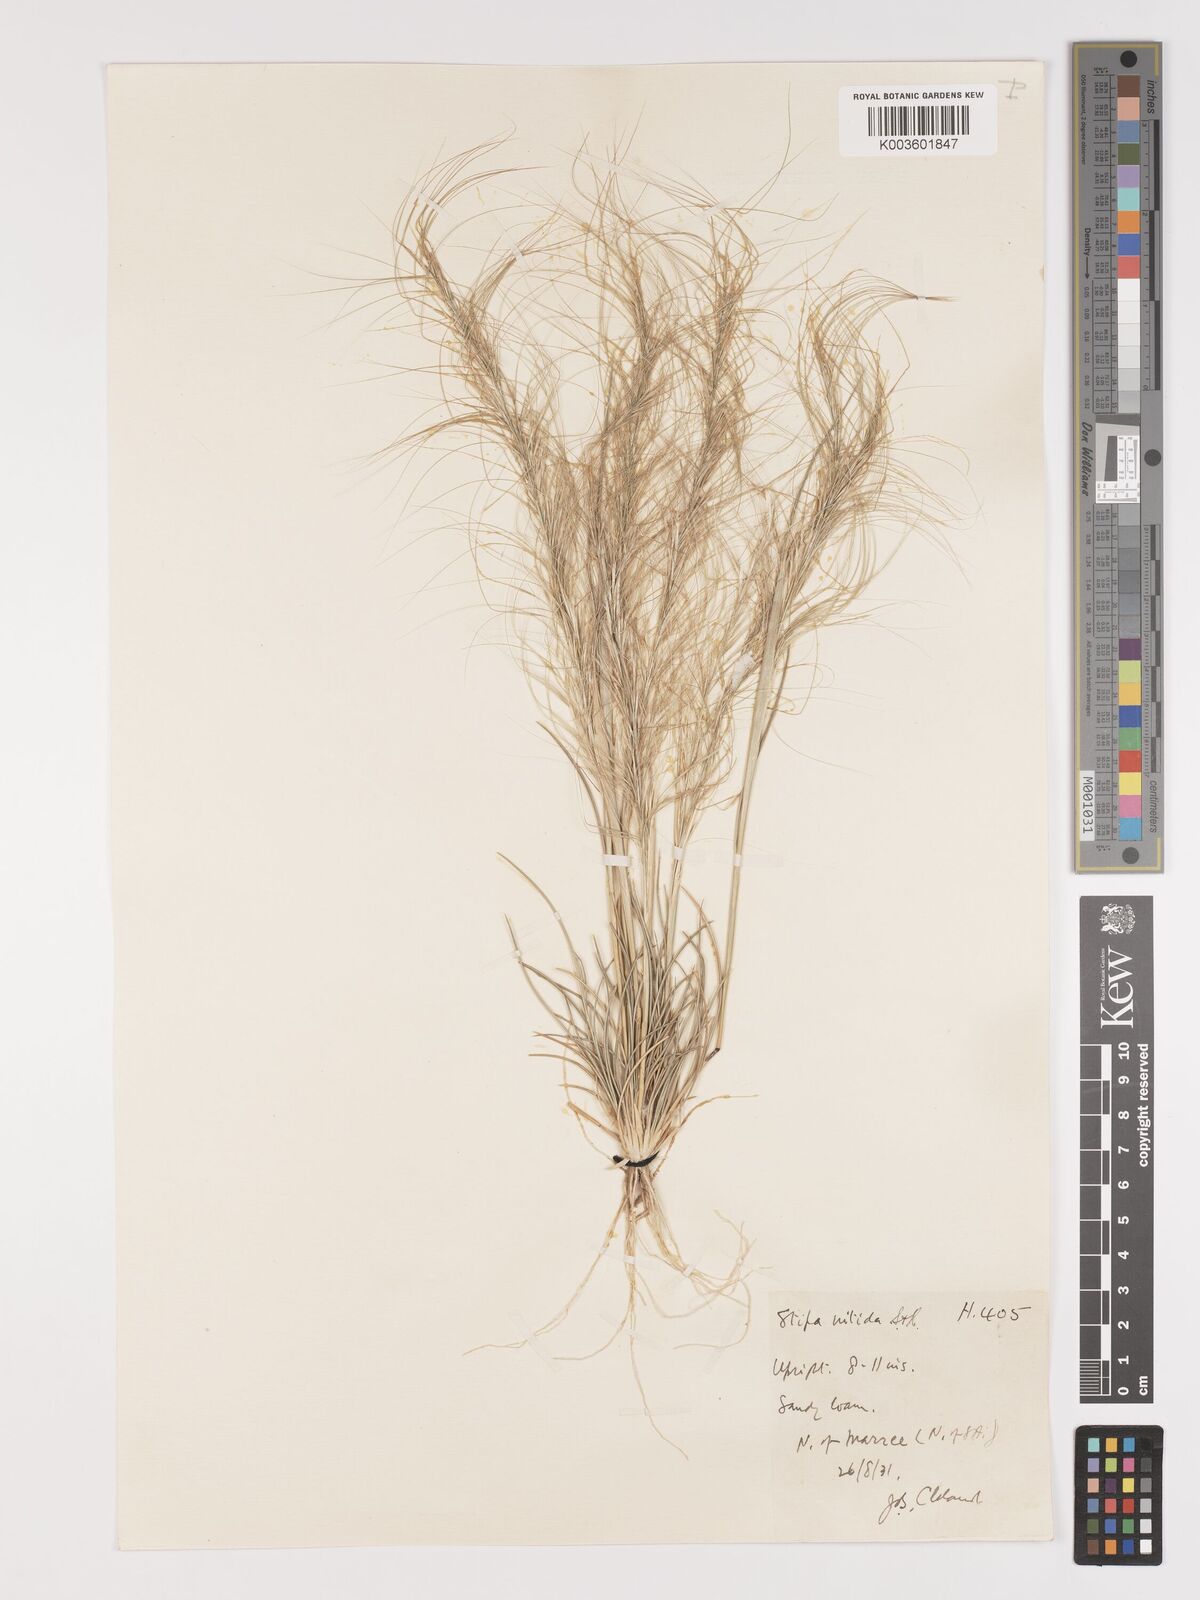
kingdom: Plantae
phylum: Tracheophyta
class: Liliopsida
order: Poales
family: Poaceae
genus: Austrostipa
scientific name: Austrostipa nitida
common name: Balcarra grass
